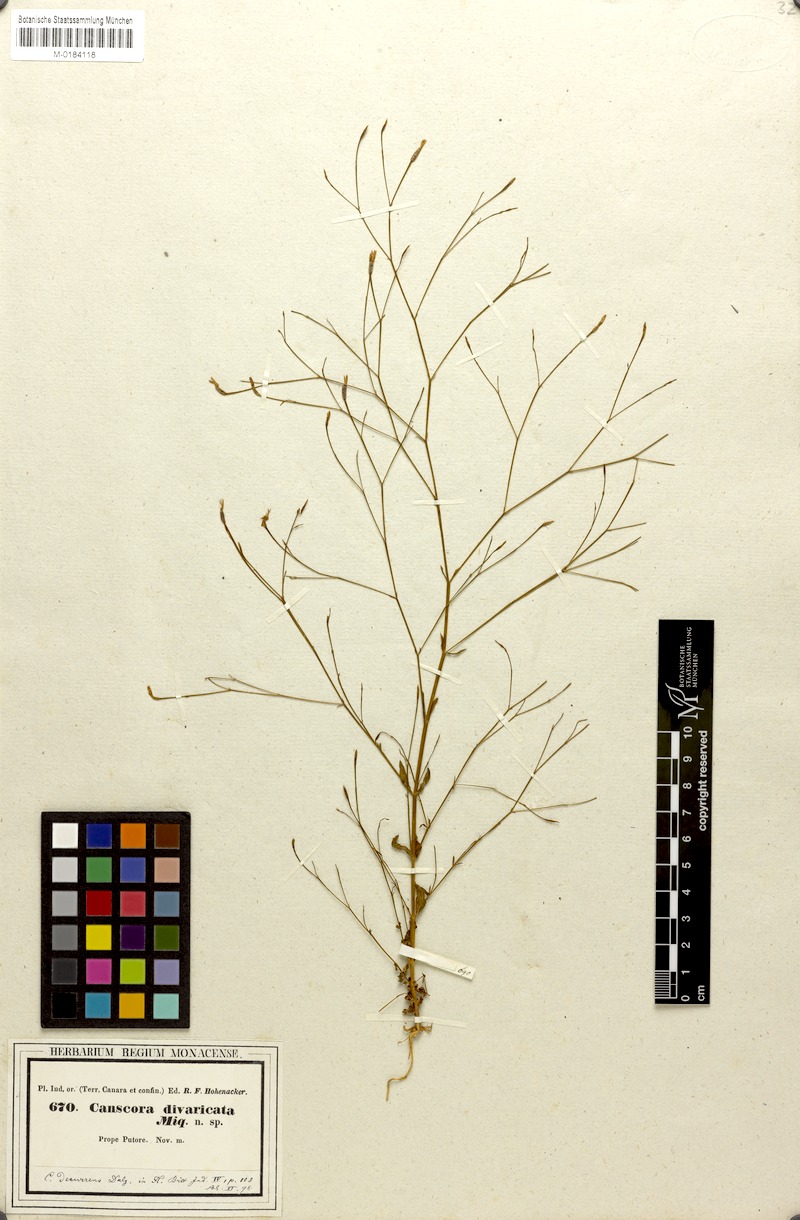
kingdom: Plantae
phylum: Tracheophyta
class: Magnoliopsida
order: Gentianales
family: Gentianaceae
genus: Canscora
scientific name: Canscora diffusa
